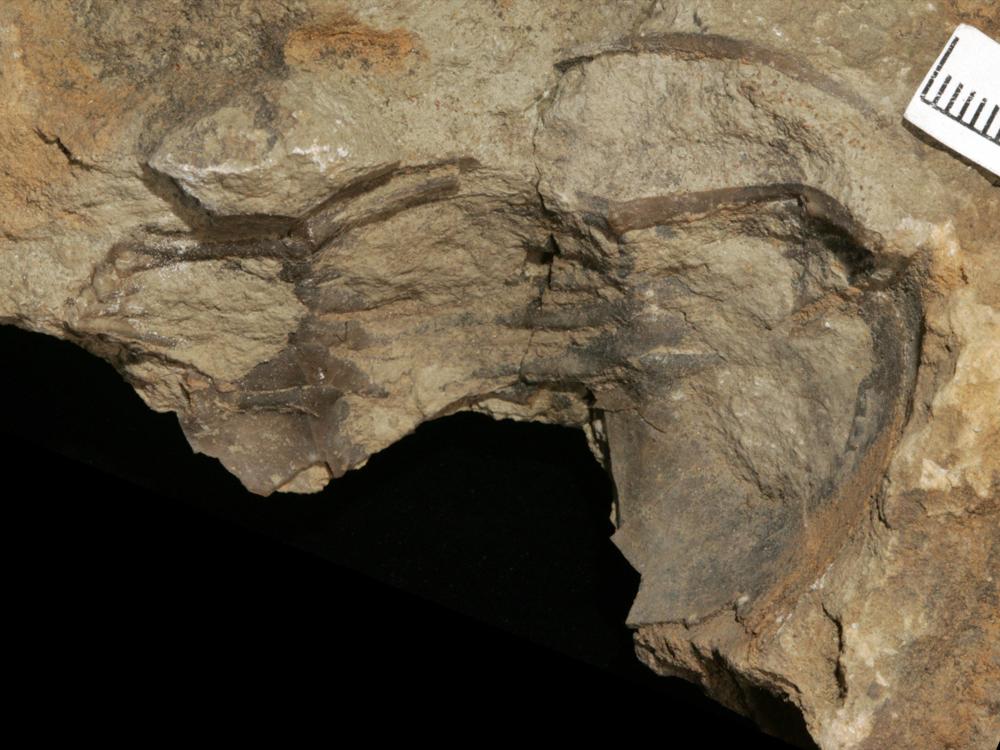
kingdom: Animalia
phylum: Arthropoda
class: Trilobita
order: Asaphida
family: Asaphidae
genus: Asaphus
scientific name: Asaphus
